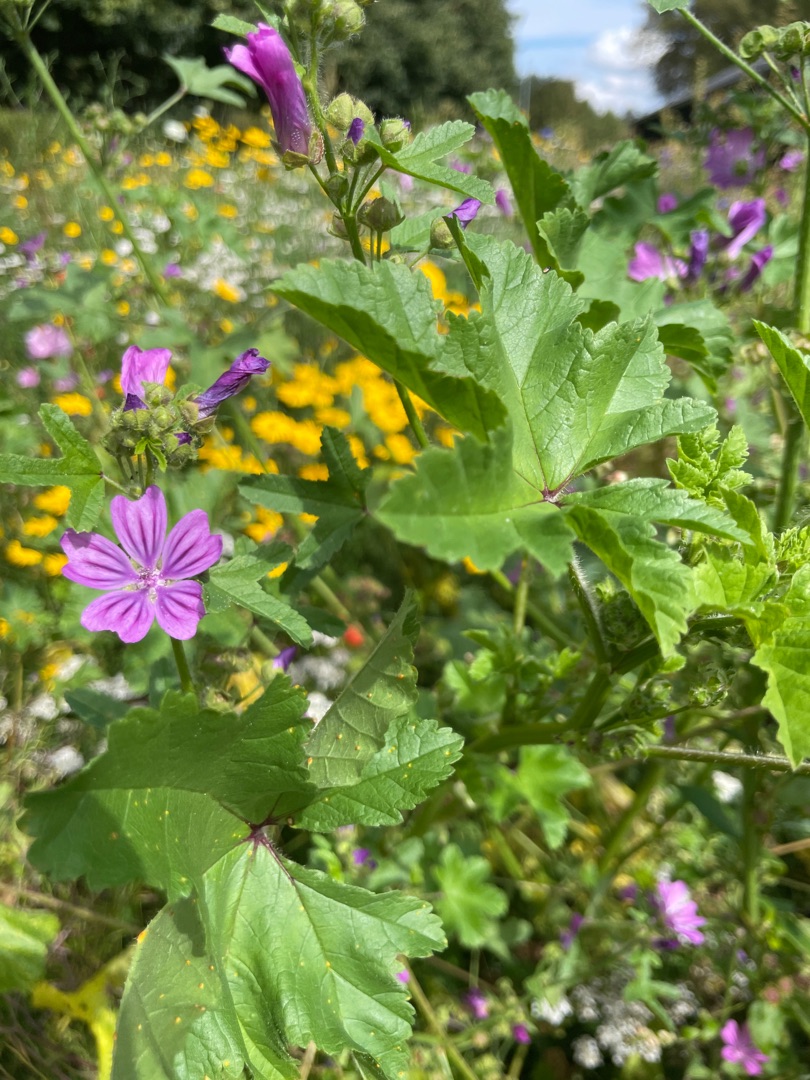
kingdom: Plantae
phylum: Tracheophyta
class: Magnoliopsida
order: Malvales
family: Malvaceae
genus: Malva
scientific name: Malva sylvestris
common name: Almindelig katost
